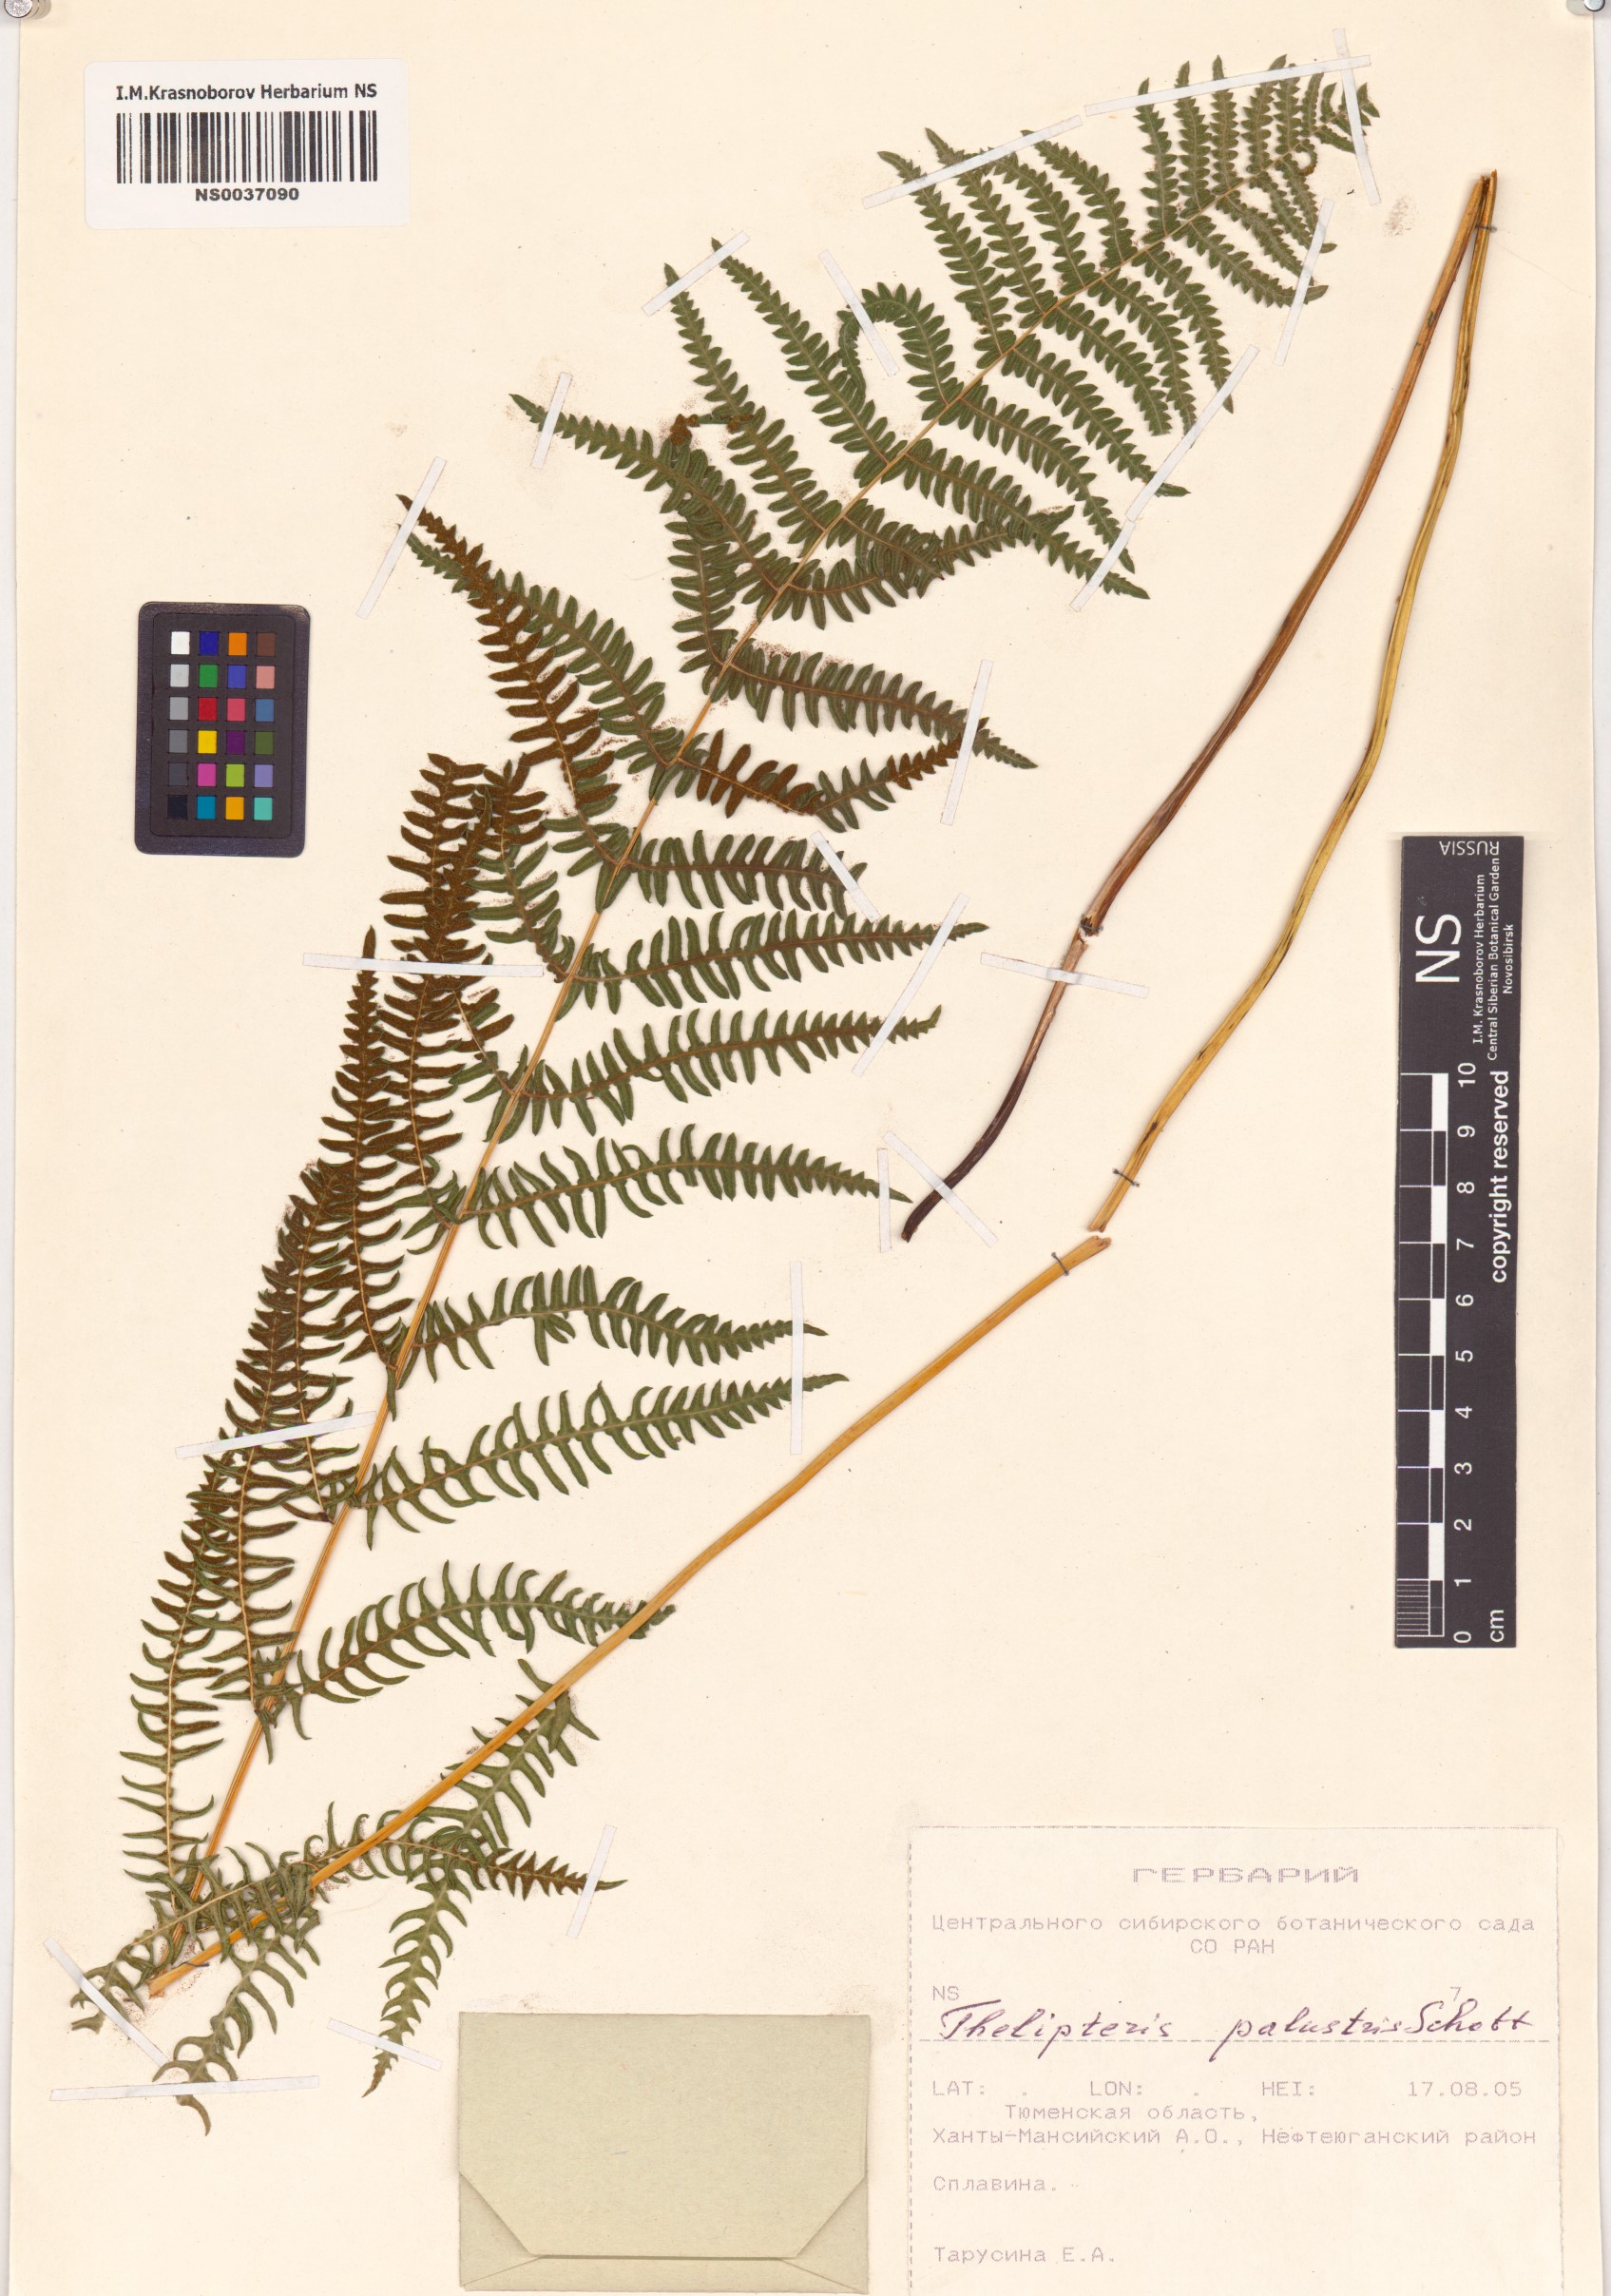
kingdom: Plantae
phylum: Tracheophyta
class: Polypodiopsida
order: Polypodiales
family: Thelypteridaceae
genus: Thelypteris
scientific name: Thelypteris palustris
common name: Marsh fern
